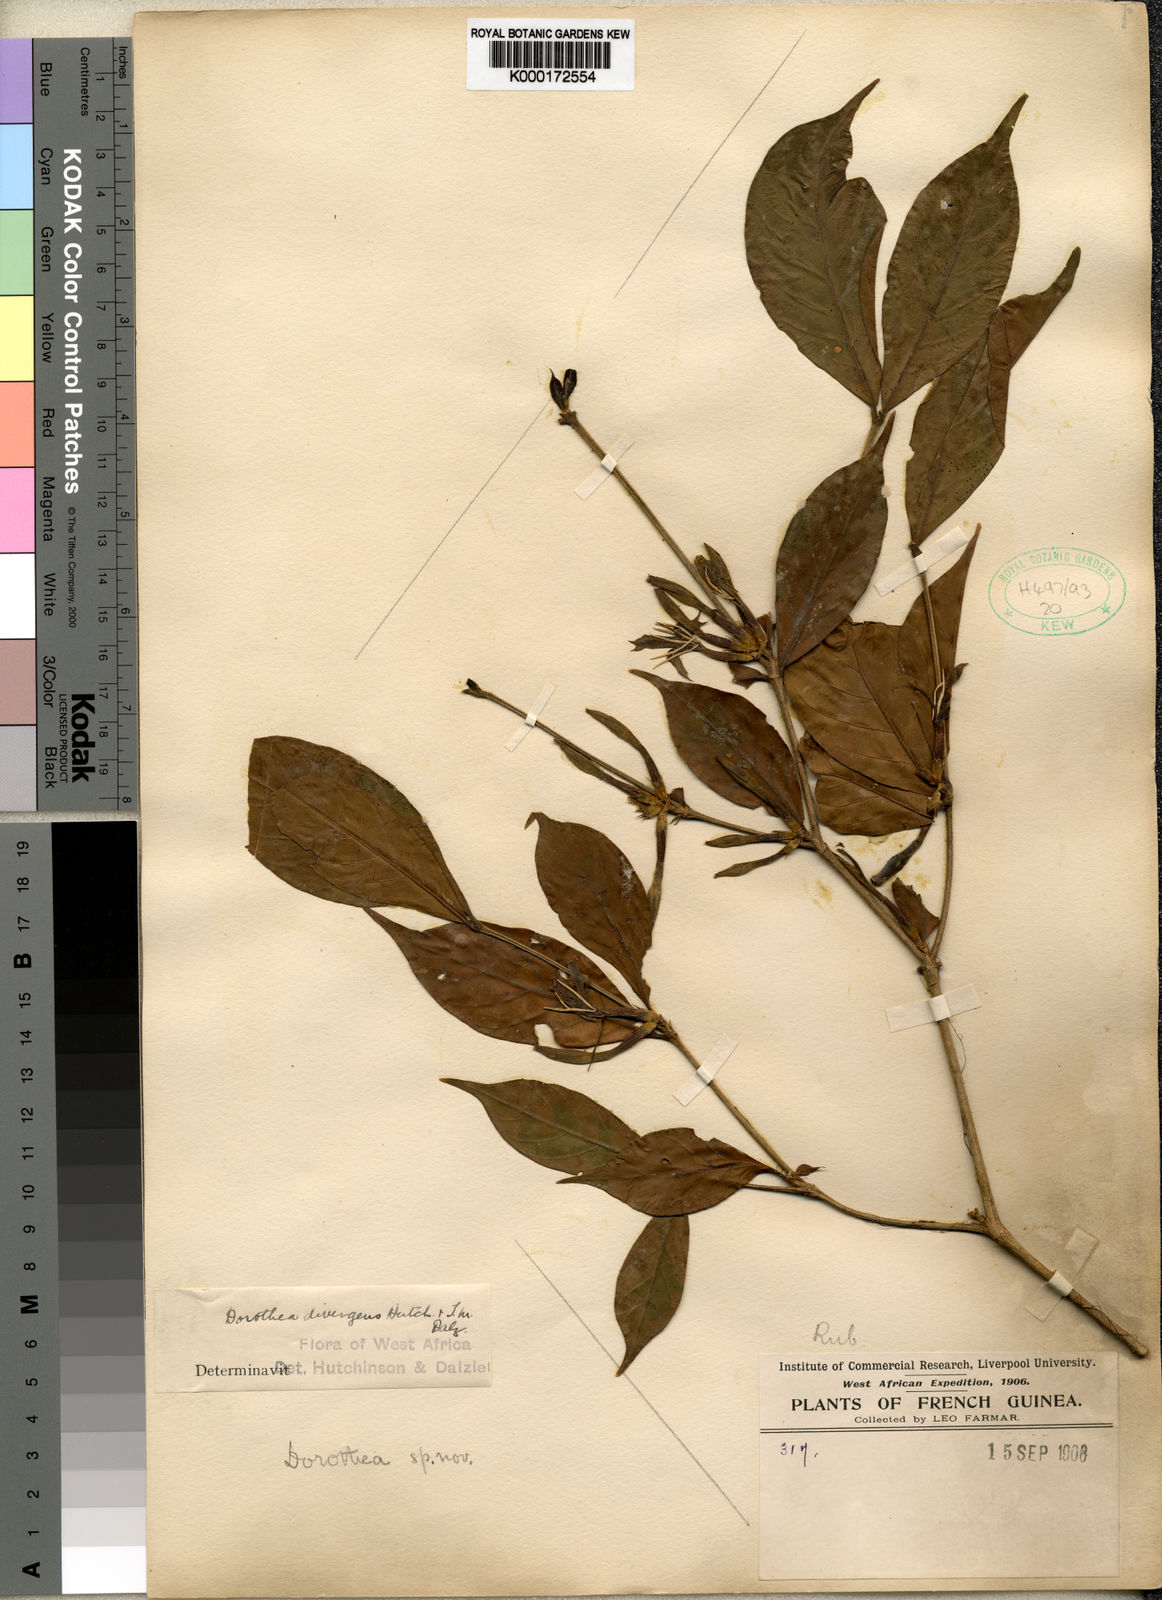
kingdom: Plantae
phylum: Tracheophyta
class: Magnoliopsida
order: Gentianales
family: Rubiaceae
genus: Aulacocalyx
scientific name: Aulacocalyx divergens
